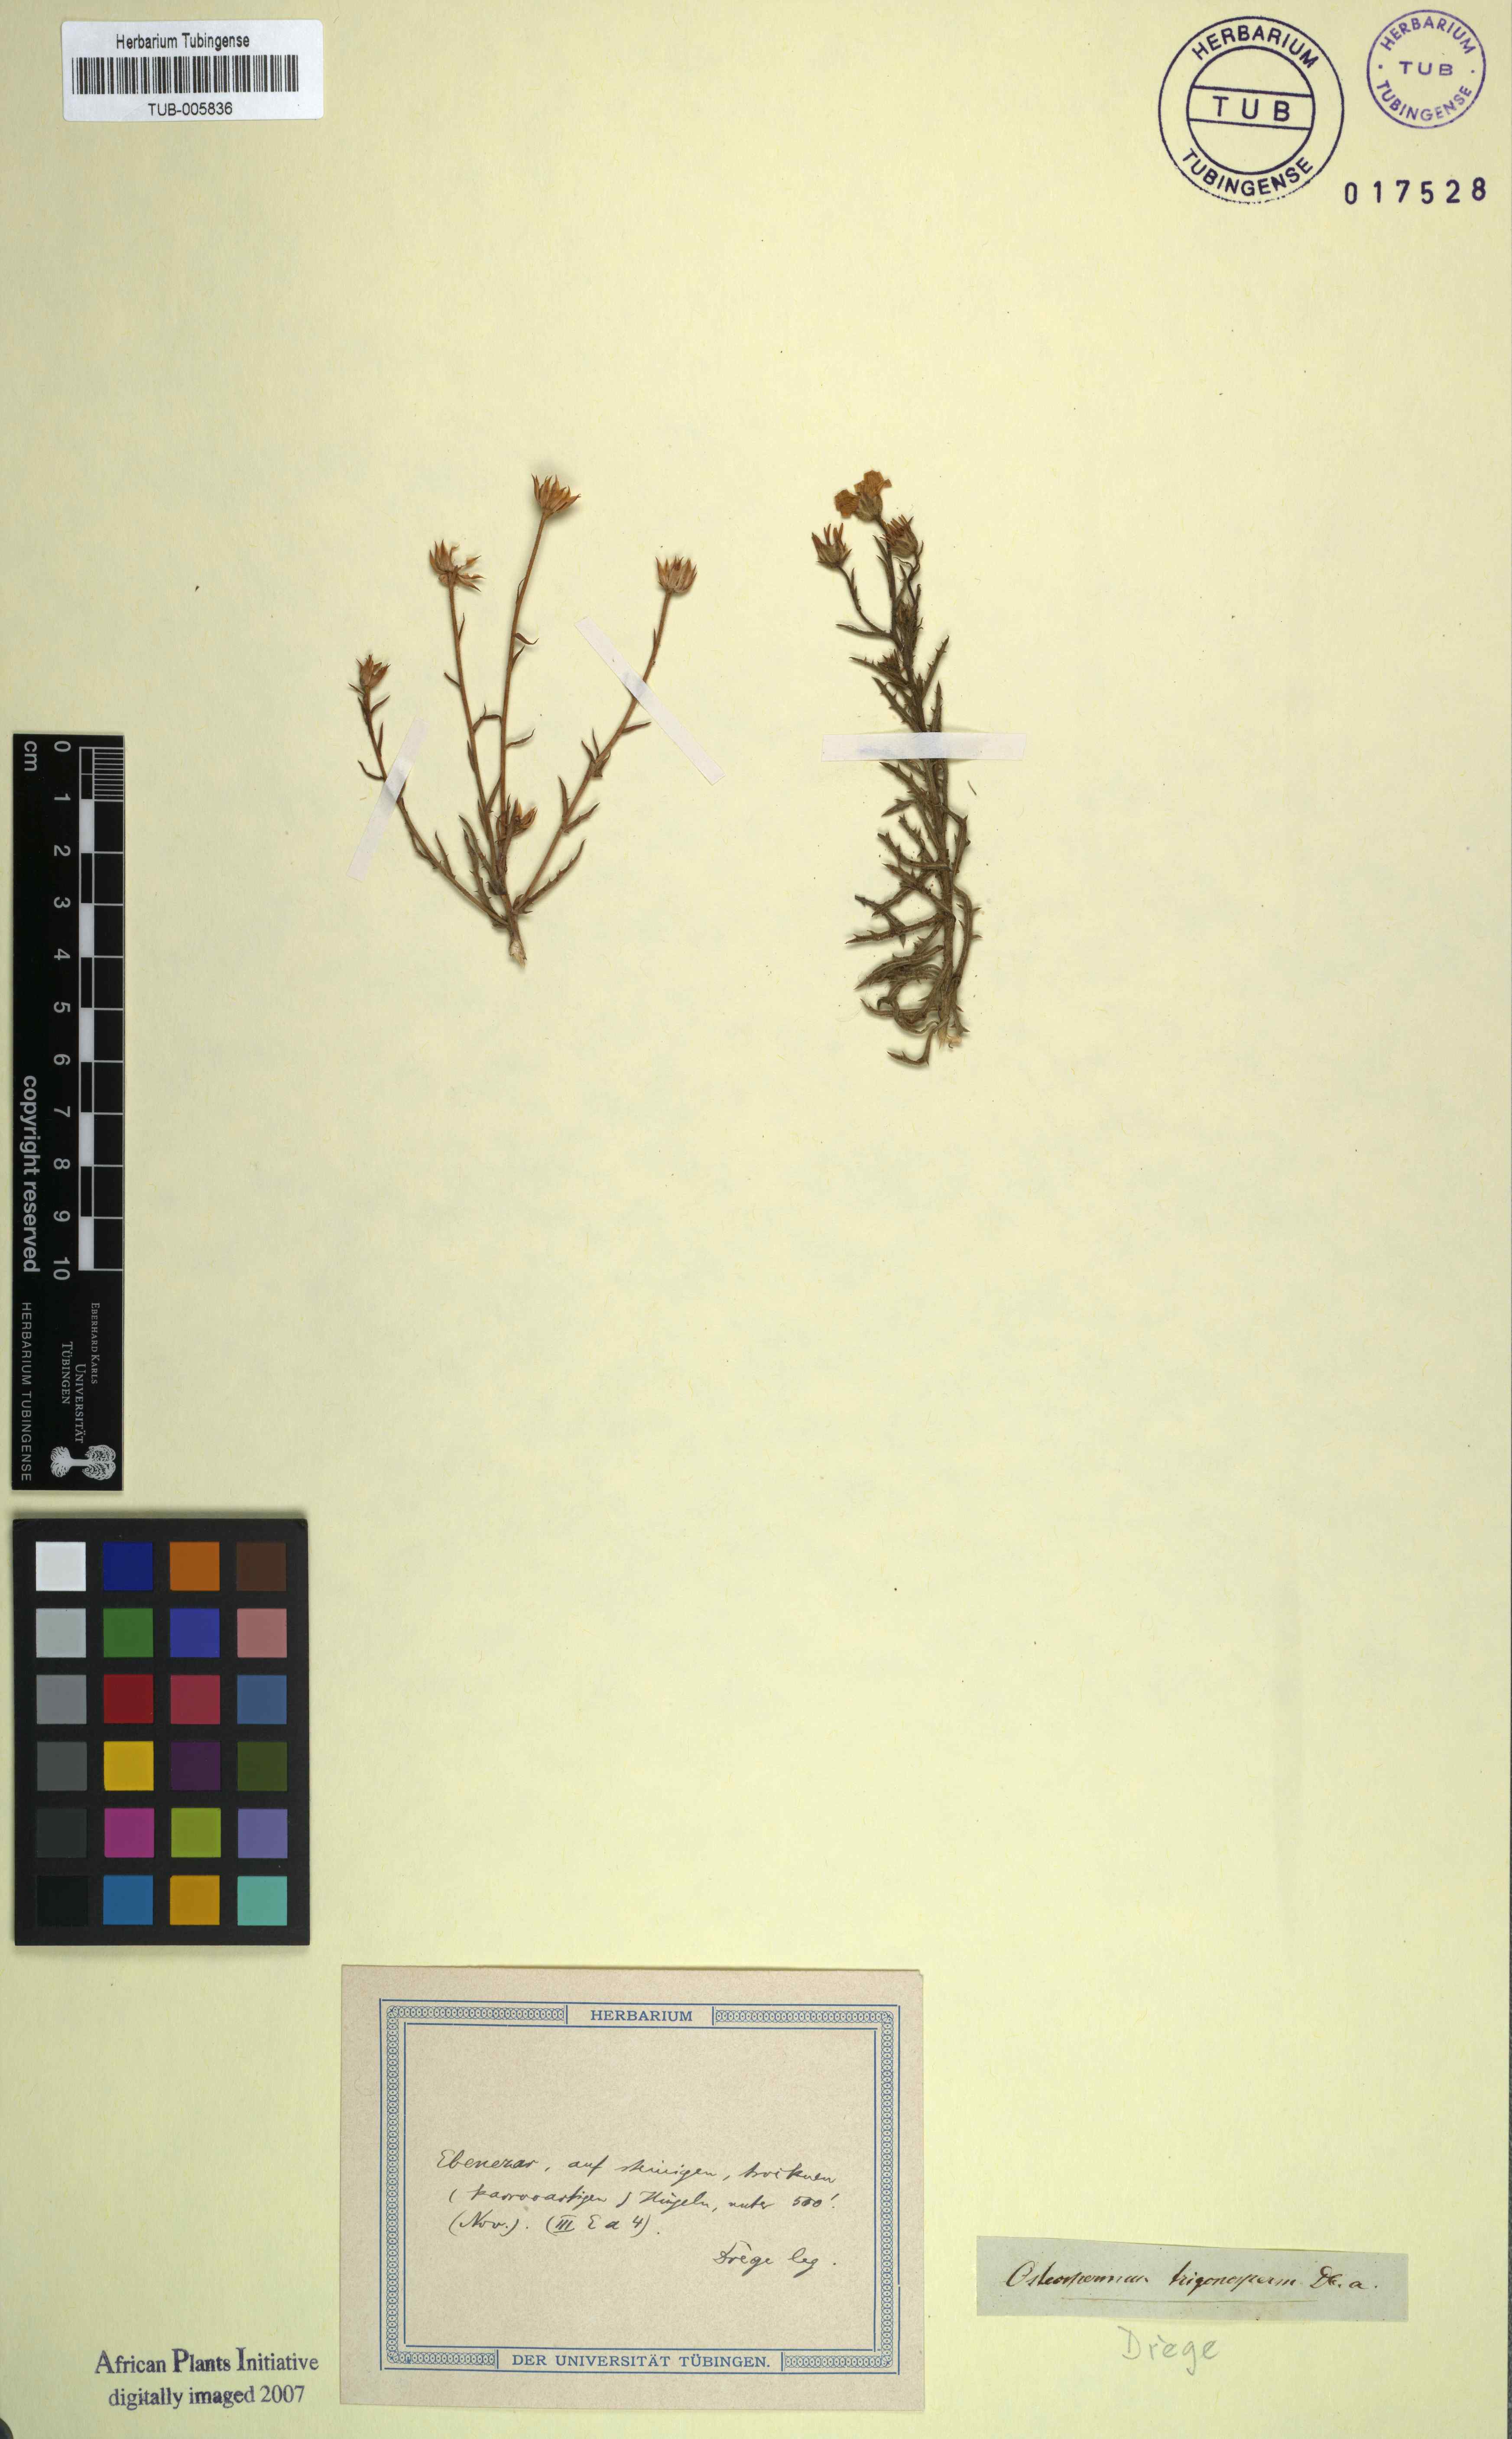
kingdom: Plantae
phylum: Tracheophyta
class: Magnoliopsida
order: Asterales
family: Asteraceae
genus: Osteospermum
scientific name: Osteospermum rigidum
